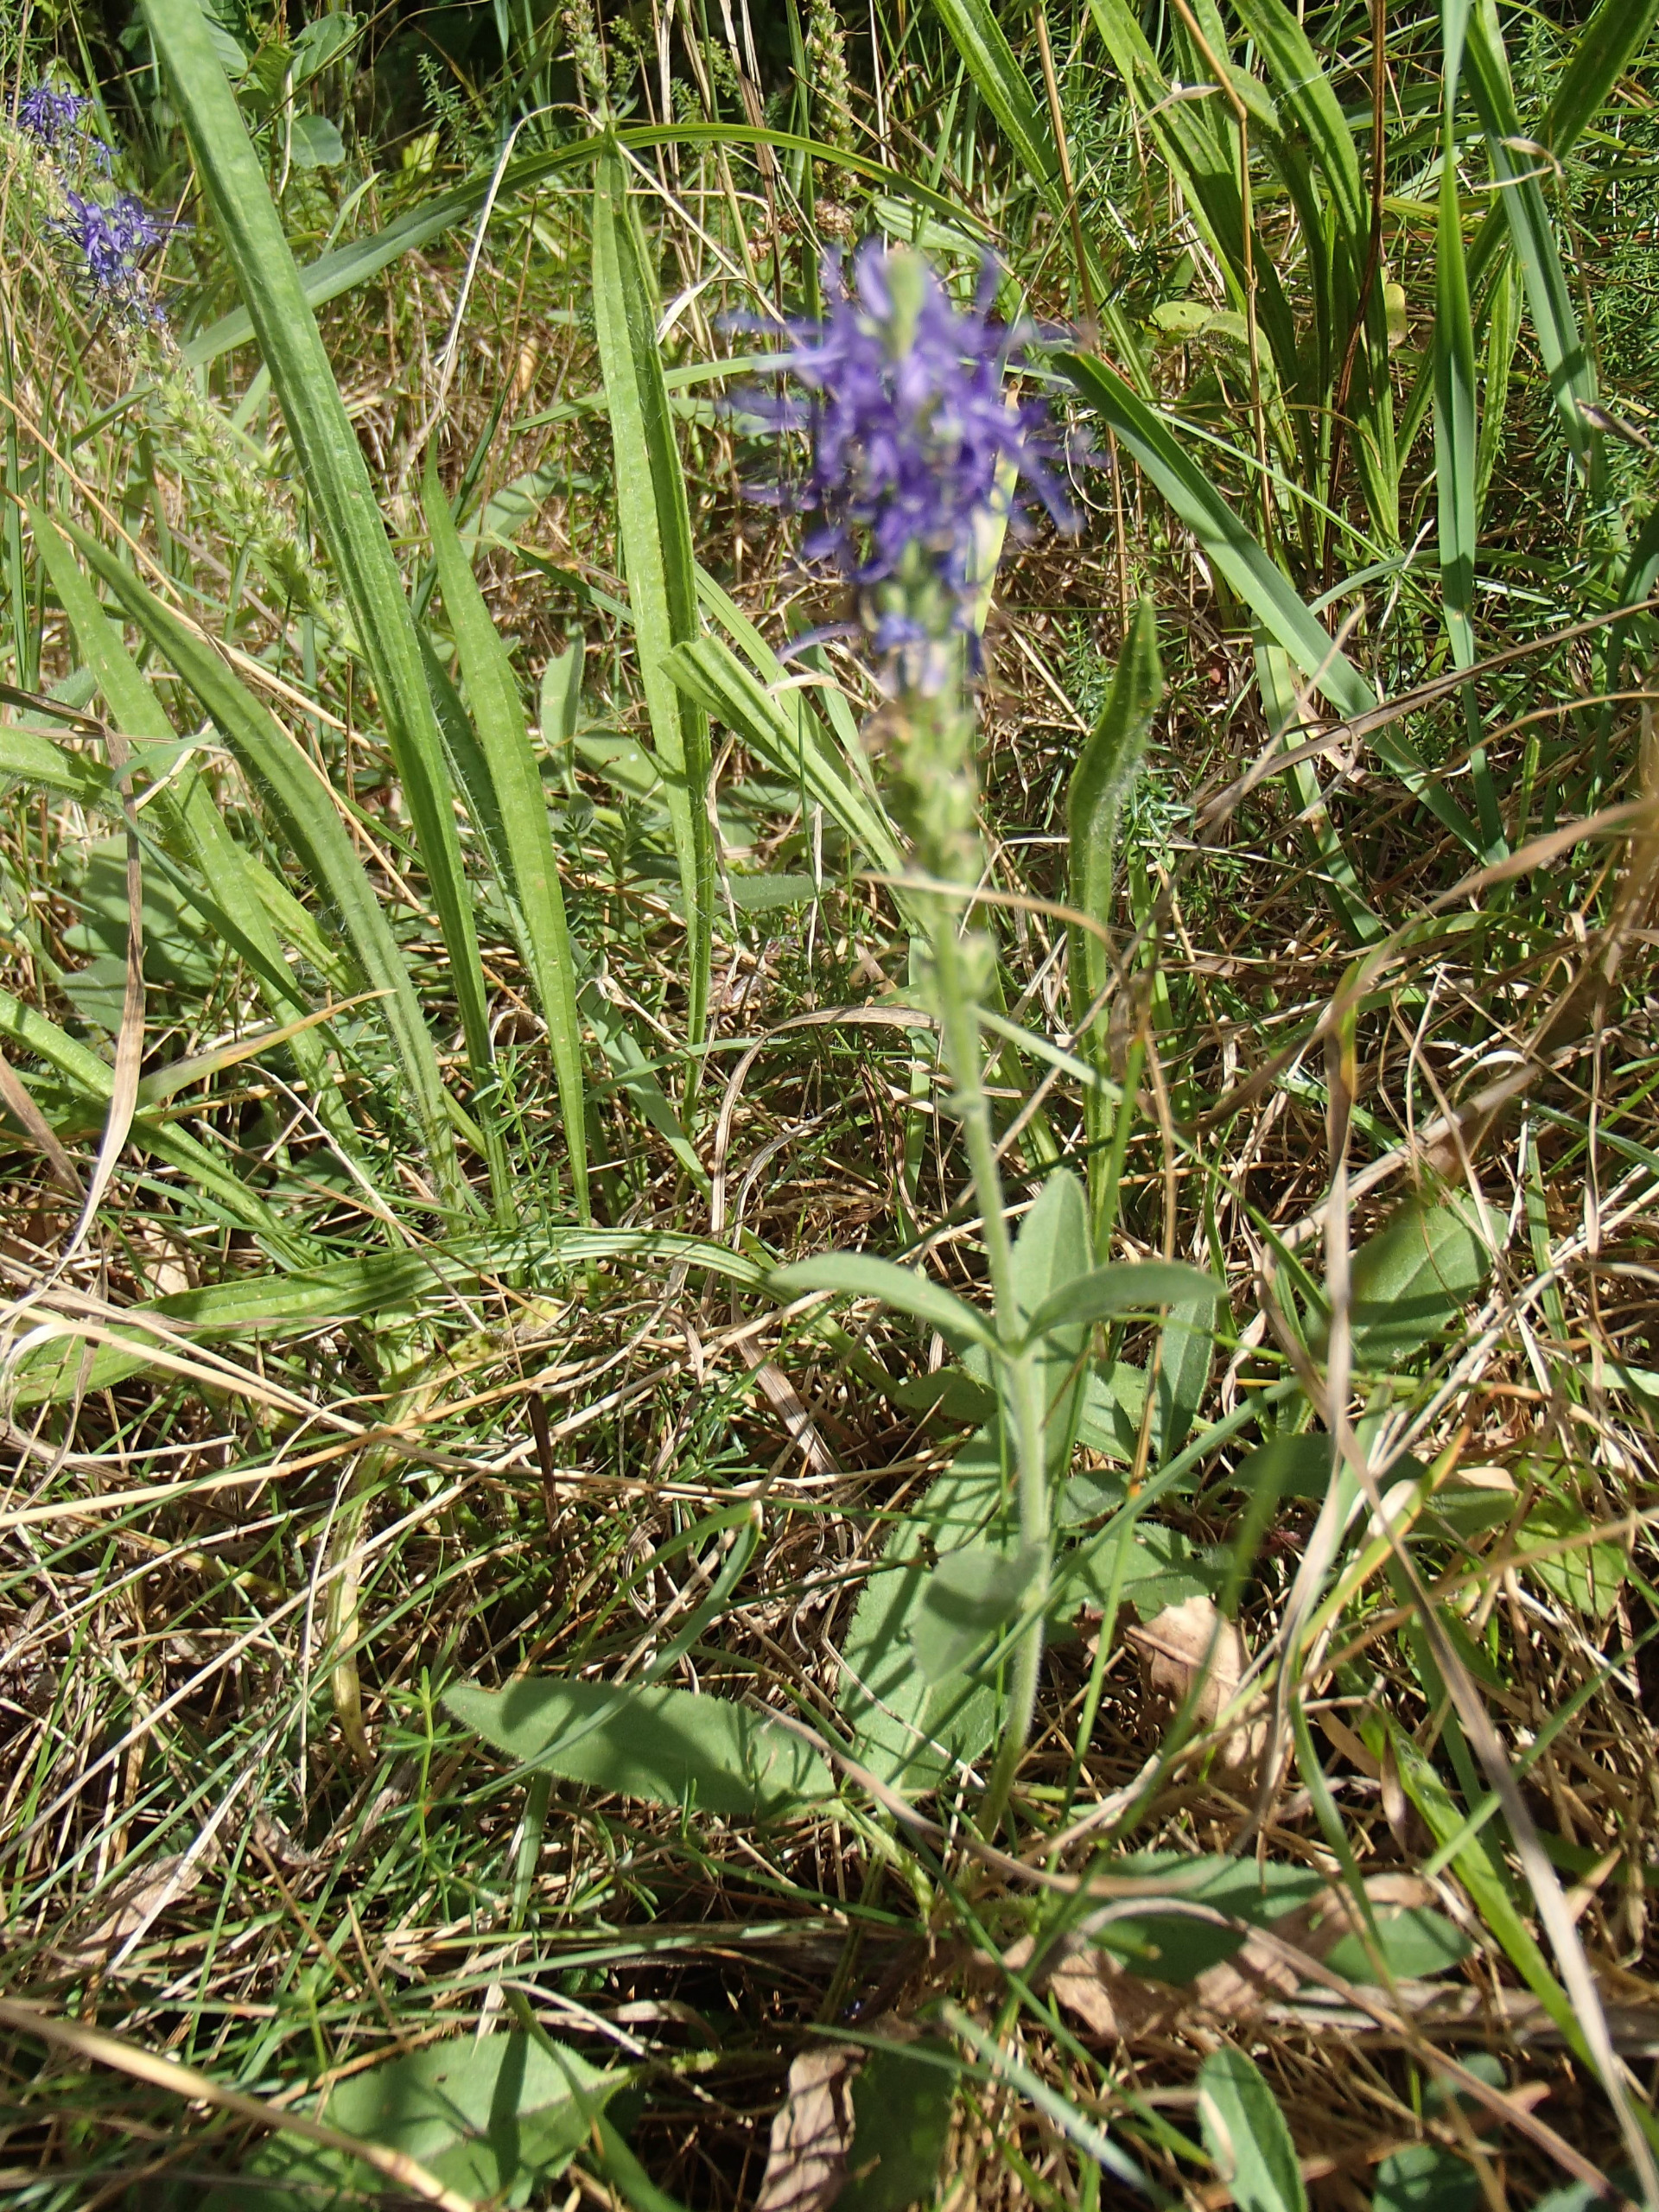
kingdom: Plantae
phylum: Tracheophyta
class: Magnoliopsida
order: Lamiales
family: Plantaginaceae
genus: Veronica
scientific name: Veronica spicata
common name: Aks-ærenpris
